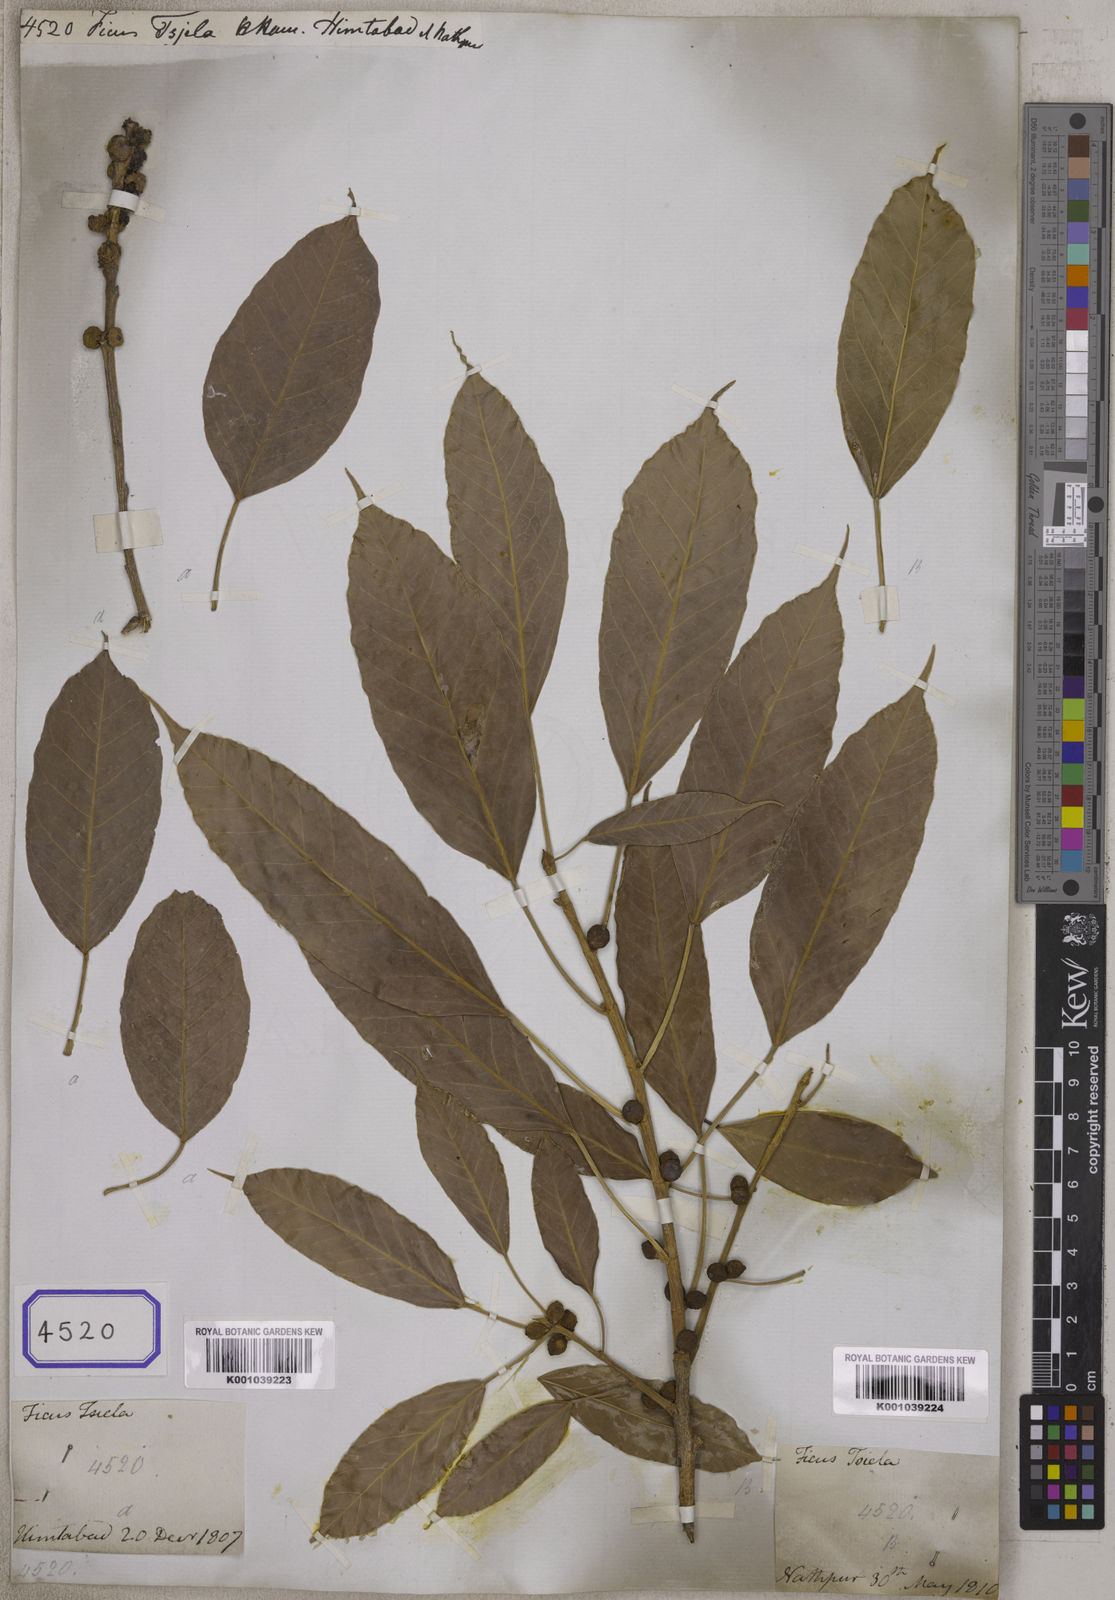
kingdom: Plantae
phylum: Tracheophyta
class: Magnoliopsida
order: Rosales
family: Moraceae
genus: Ficus
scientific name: Ficus amplissima
